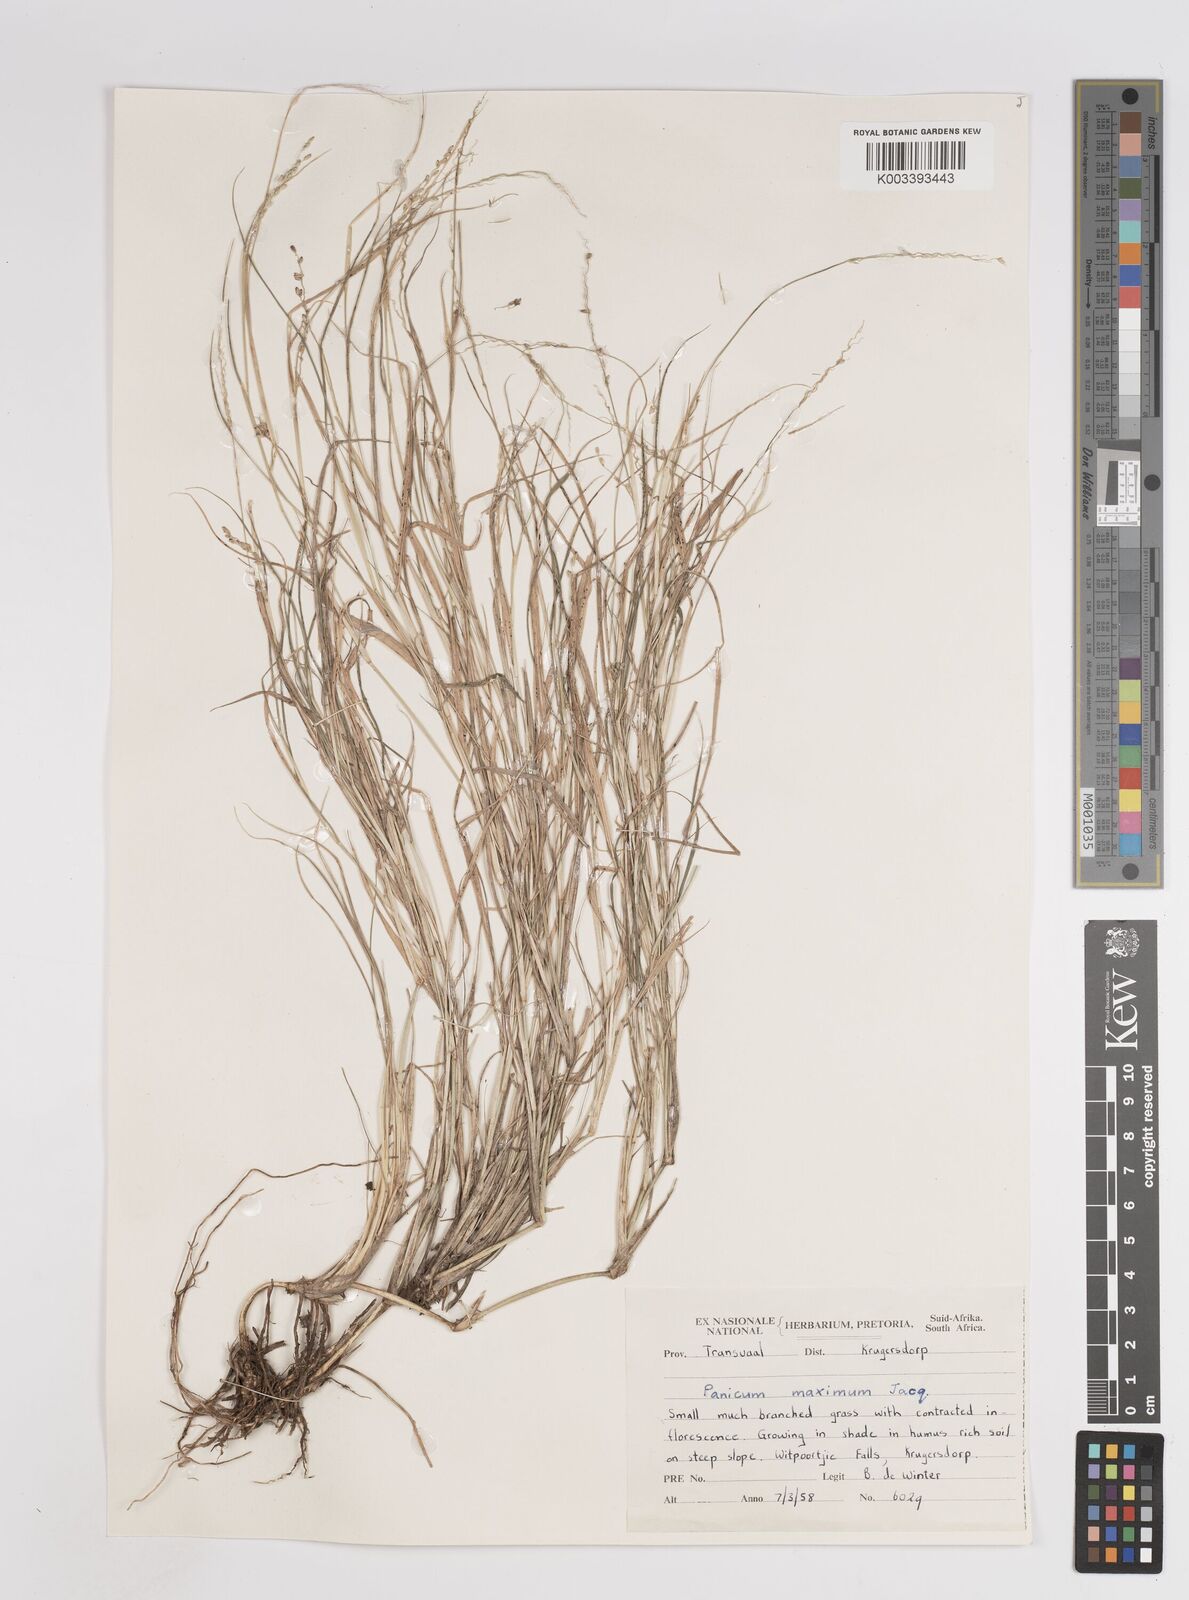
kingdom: Plantae
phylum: Tracheophyta
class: Liliopsida
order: Poales
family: Poaceae
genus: Megathyrsus
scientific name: Megathyrsus maximus
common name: Guineagrass
